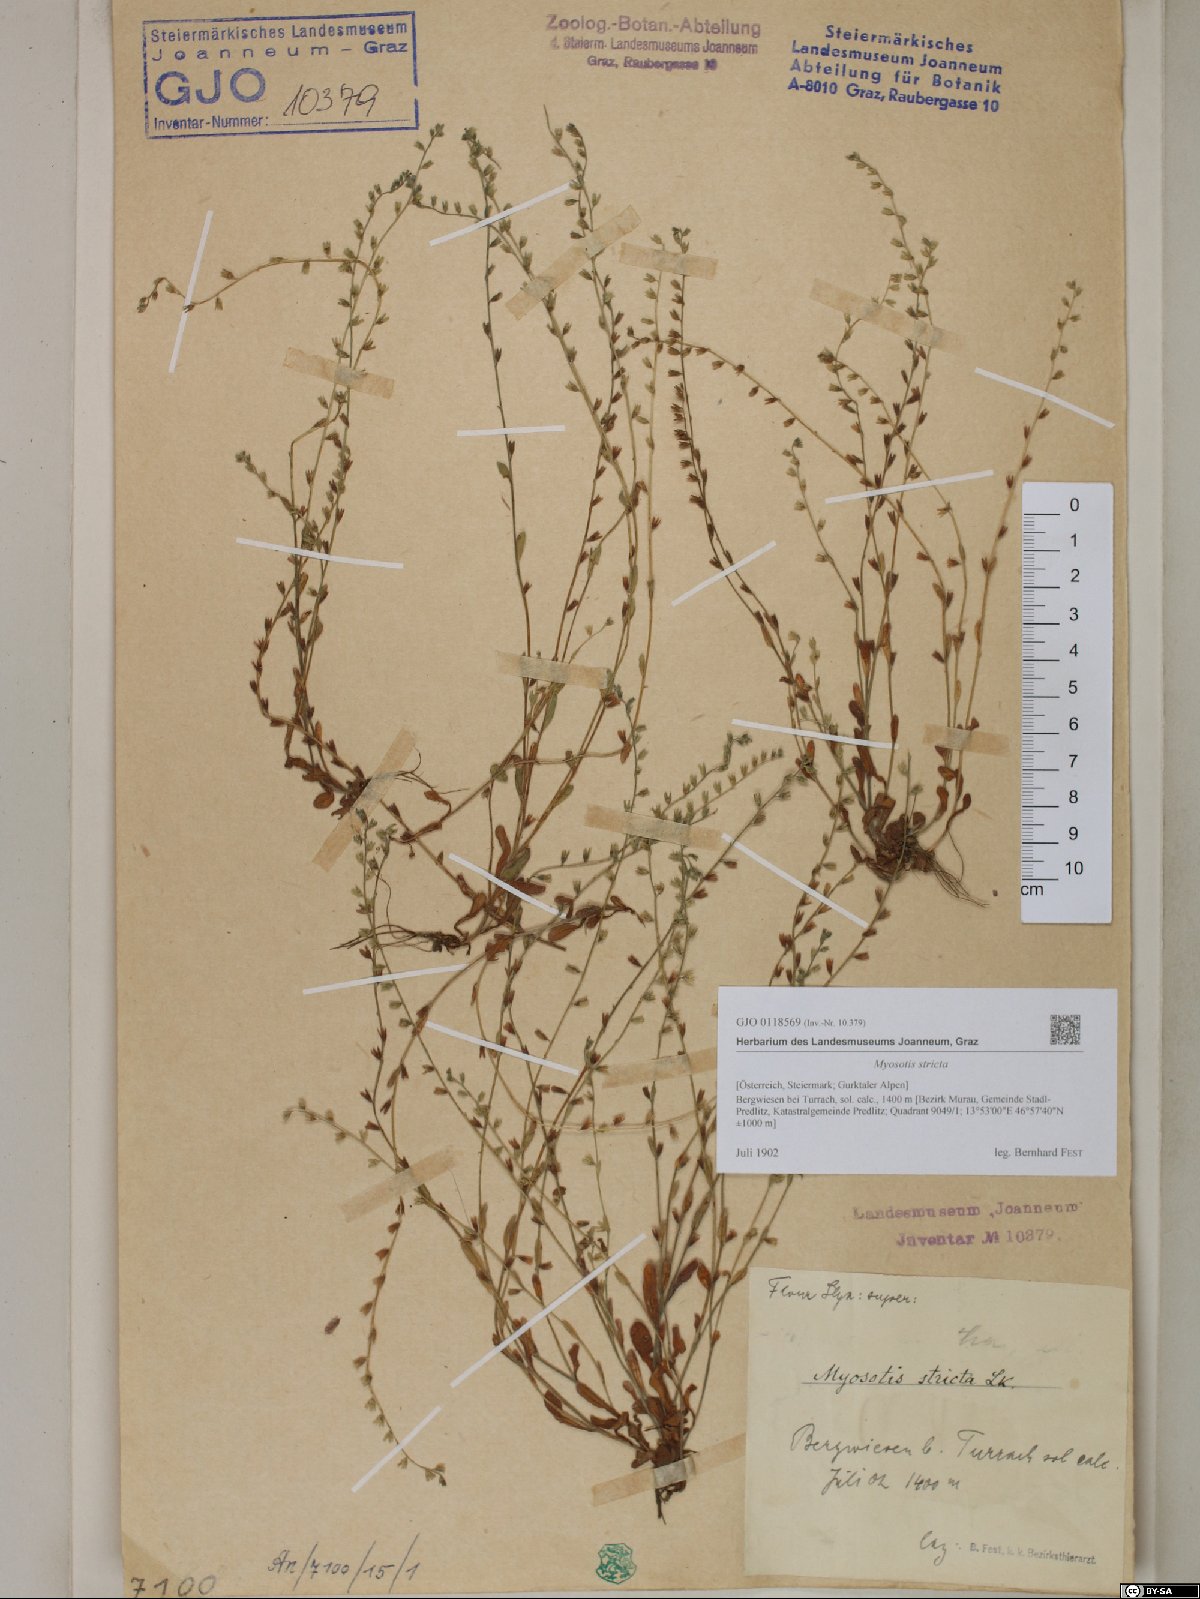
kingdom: Plantae
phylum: Tracheophyta
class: Magnoliopsida
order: Boraginales
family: Boraginaceae
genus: Myosotis
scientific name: Myosotis stricta
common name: Strict forget-me-not
